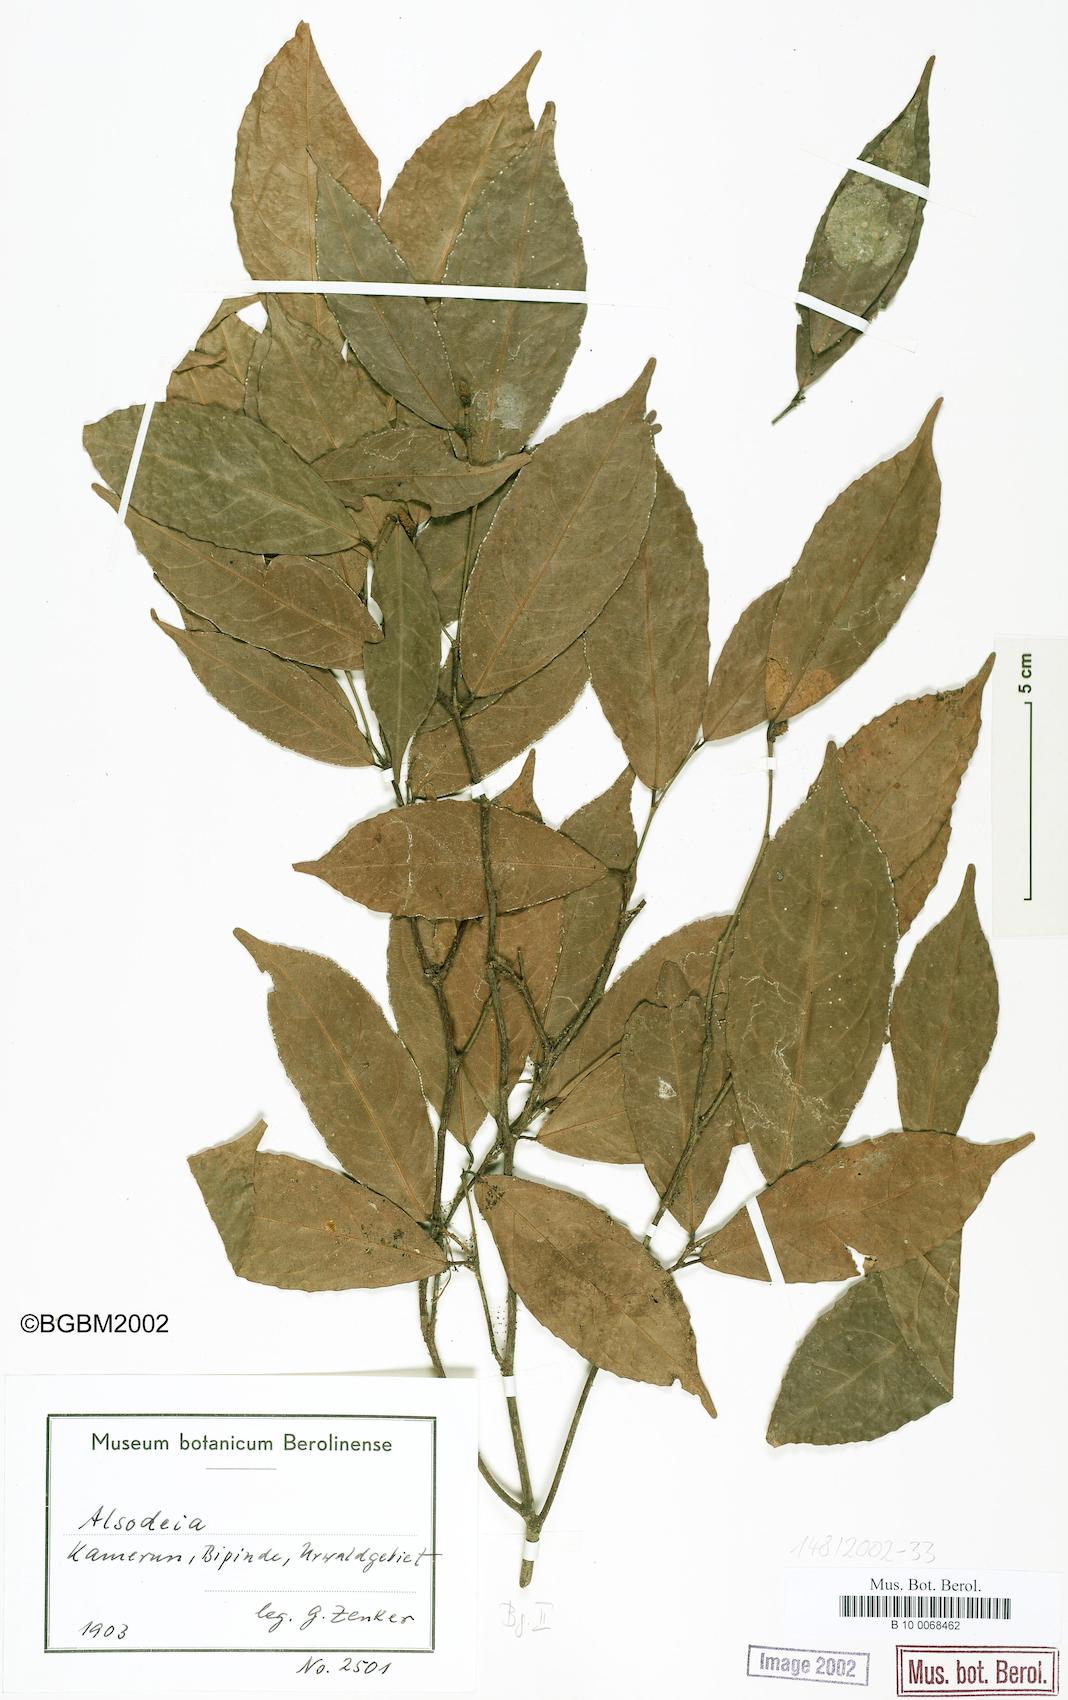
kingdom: Plantae
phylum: Tracheophyta
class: Magnoliopsida
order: Solanales
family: Solanaceae
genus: Alsodeia
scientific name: Alsodeia
